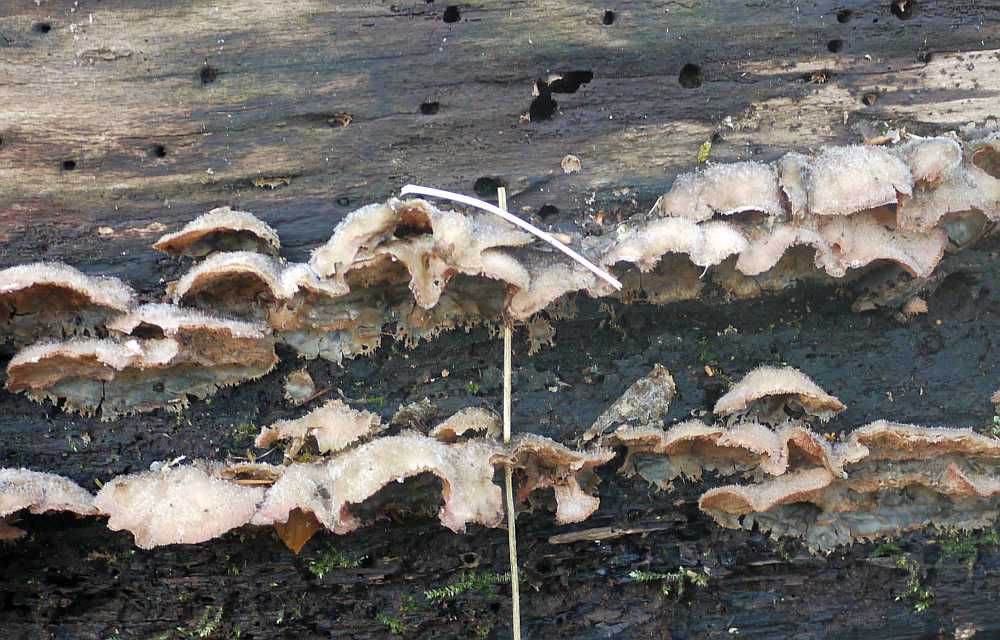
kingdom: Fungi
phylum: Basidiomycota
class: Agaricomycetes
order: Polyporales
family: Meruliaceae
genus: Phlebia
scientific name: Phlebia tremellosa
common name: bævrende åresvamp
